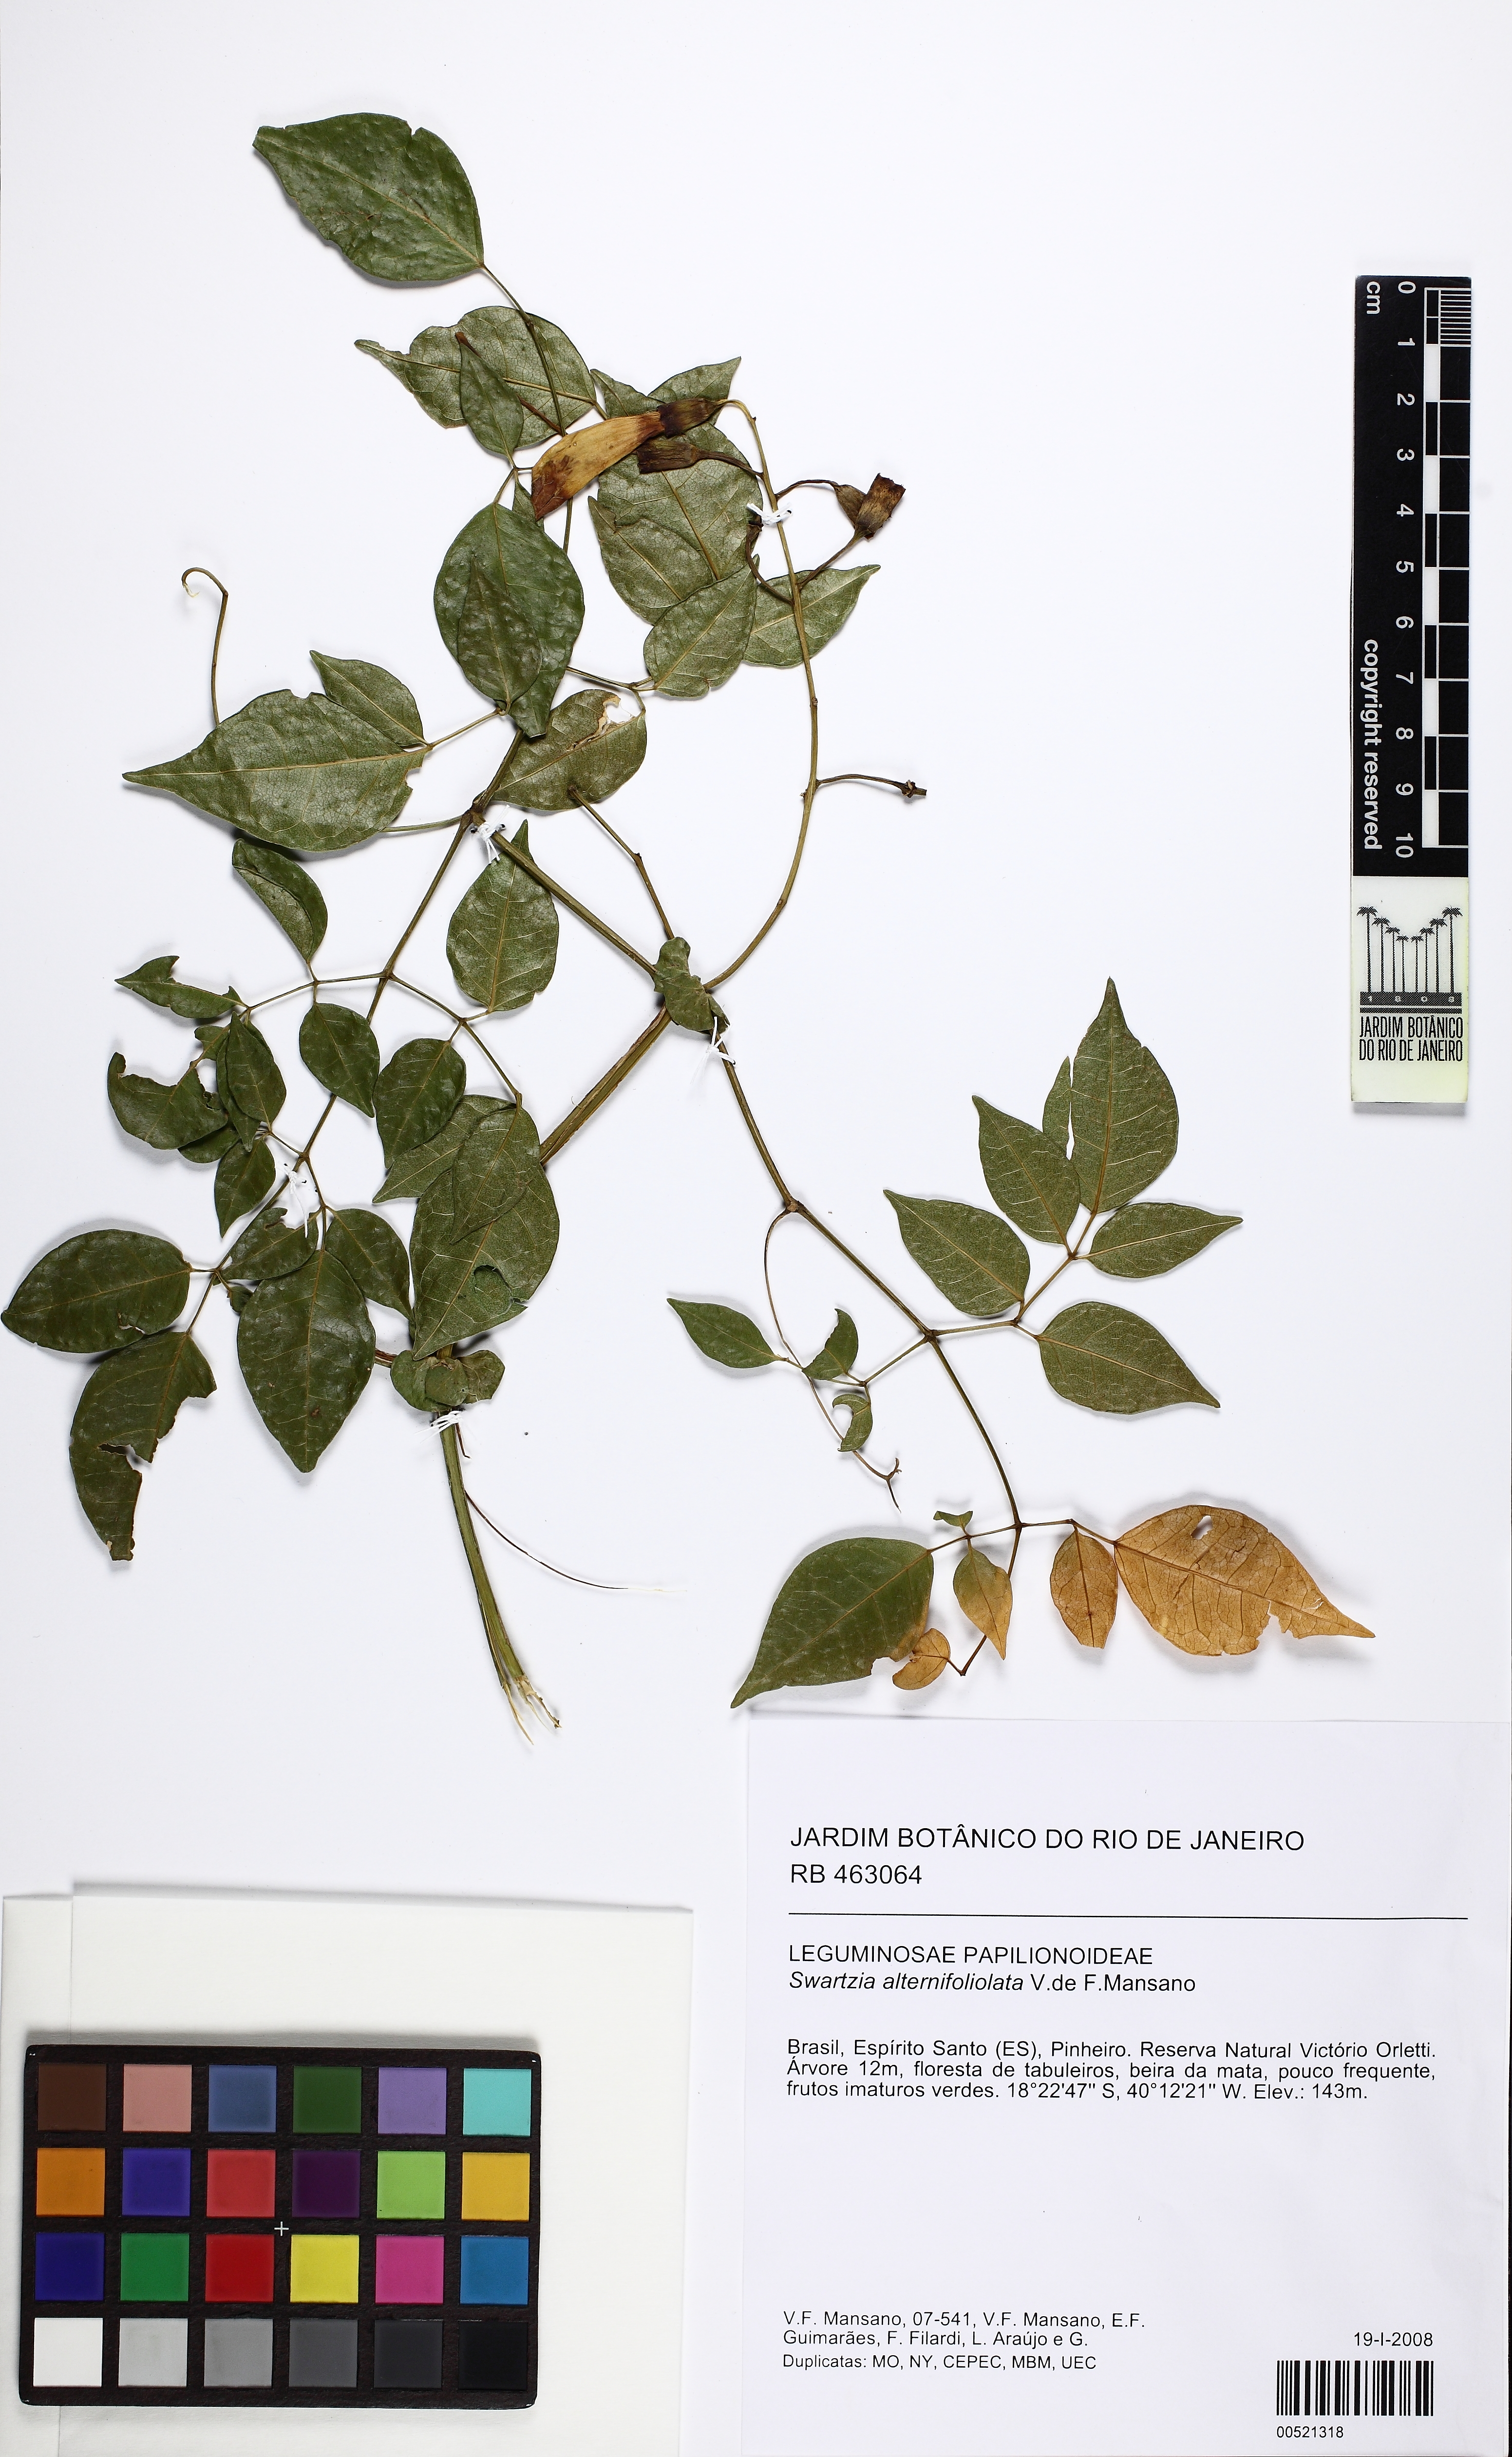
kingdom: Plantae
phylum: Tracheophyta
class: Magnoliopsida
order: Fabales
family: Fabaceae
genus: Swartzia
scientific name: Swartzia alternifoliolata
